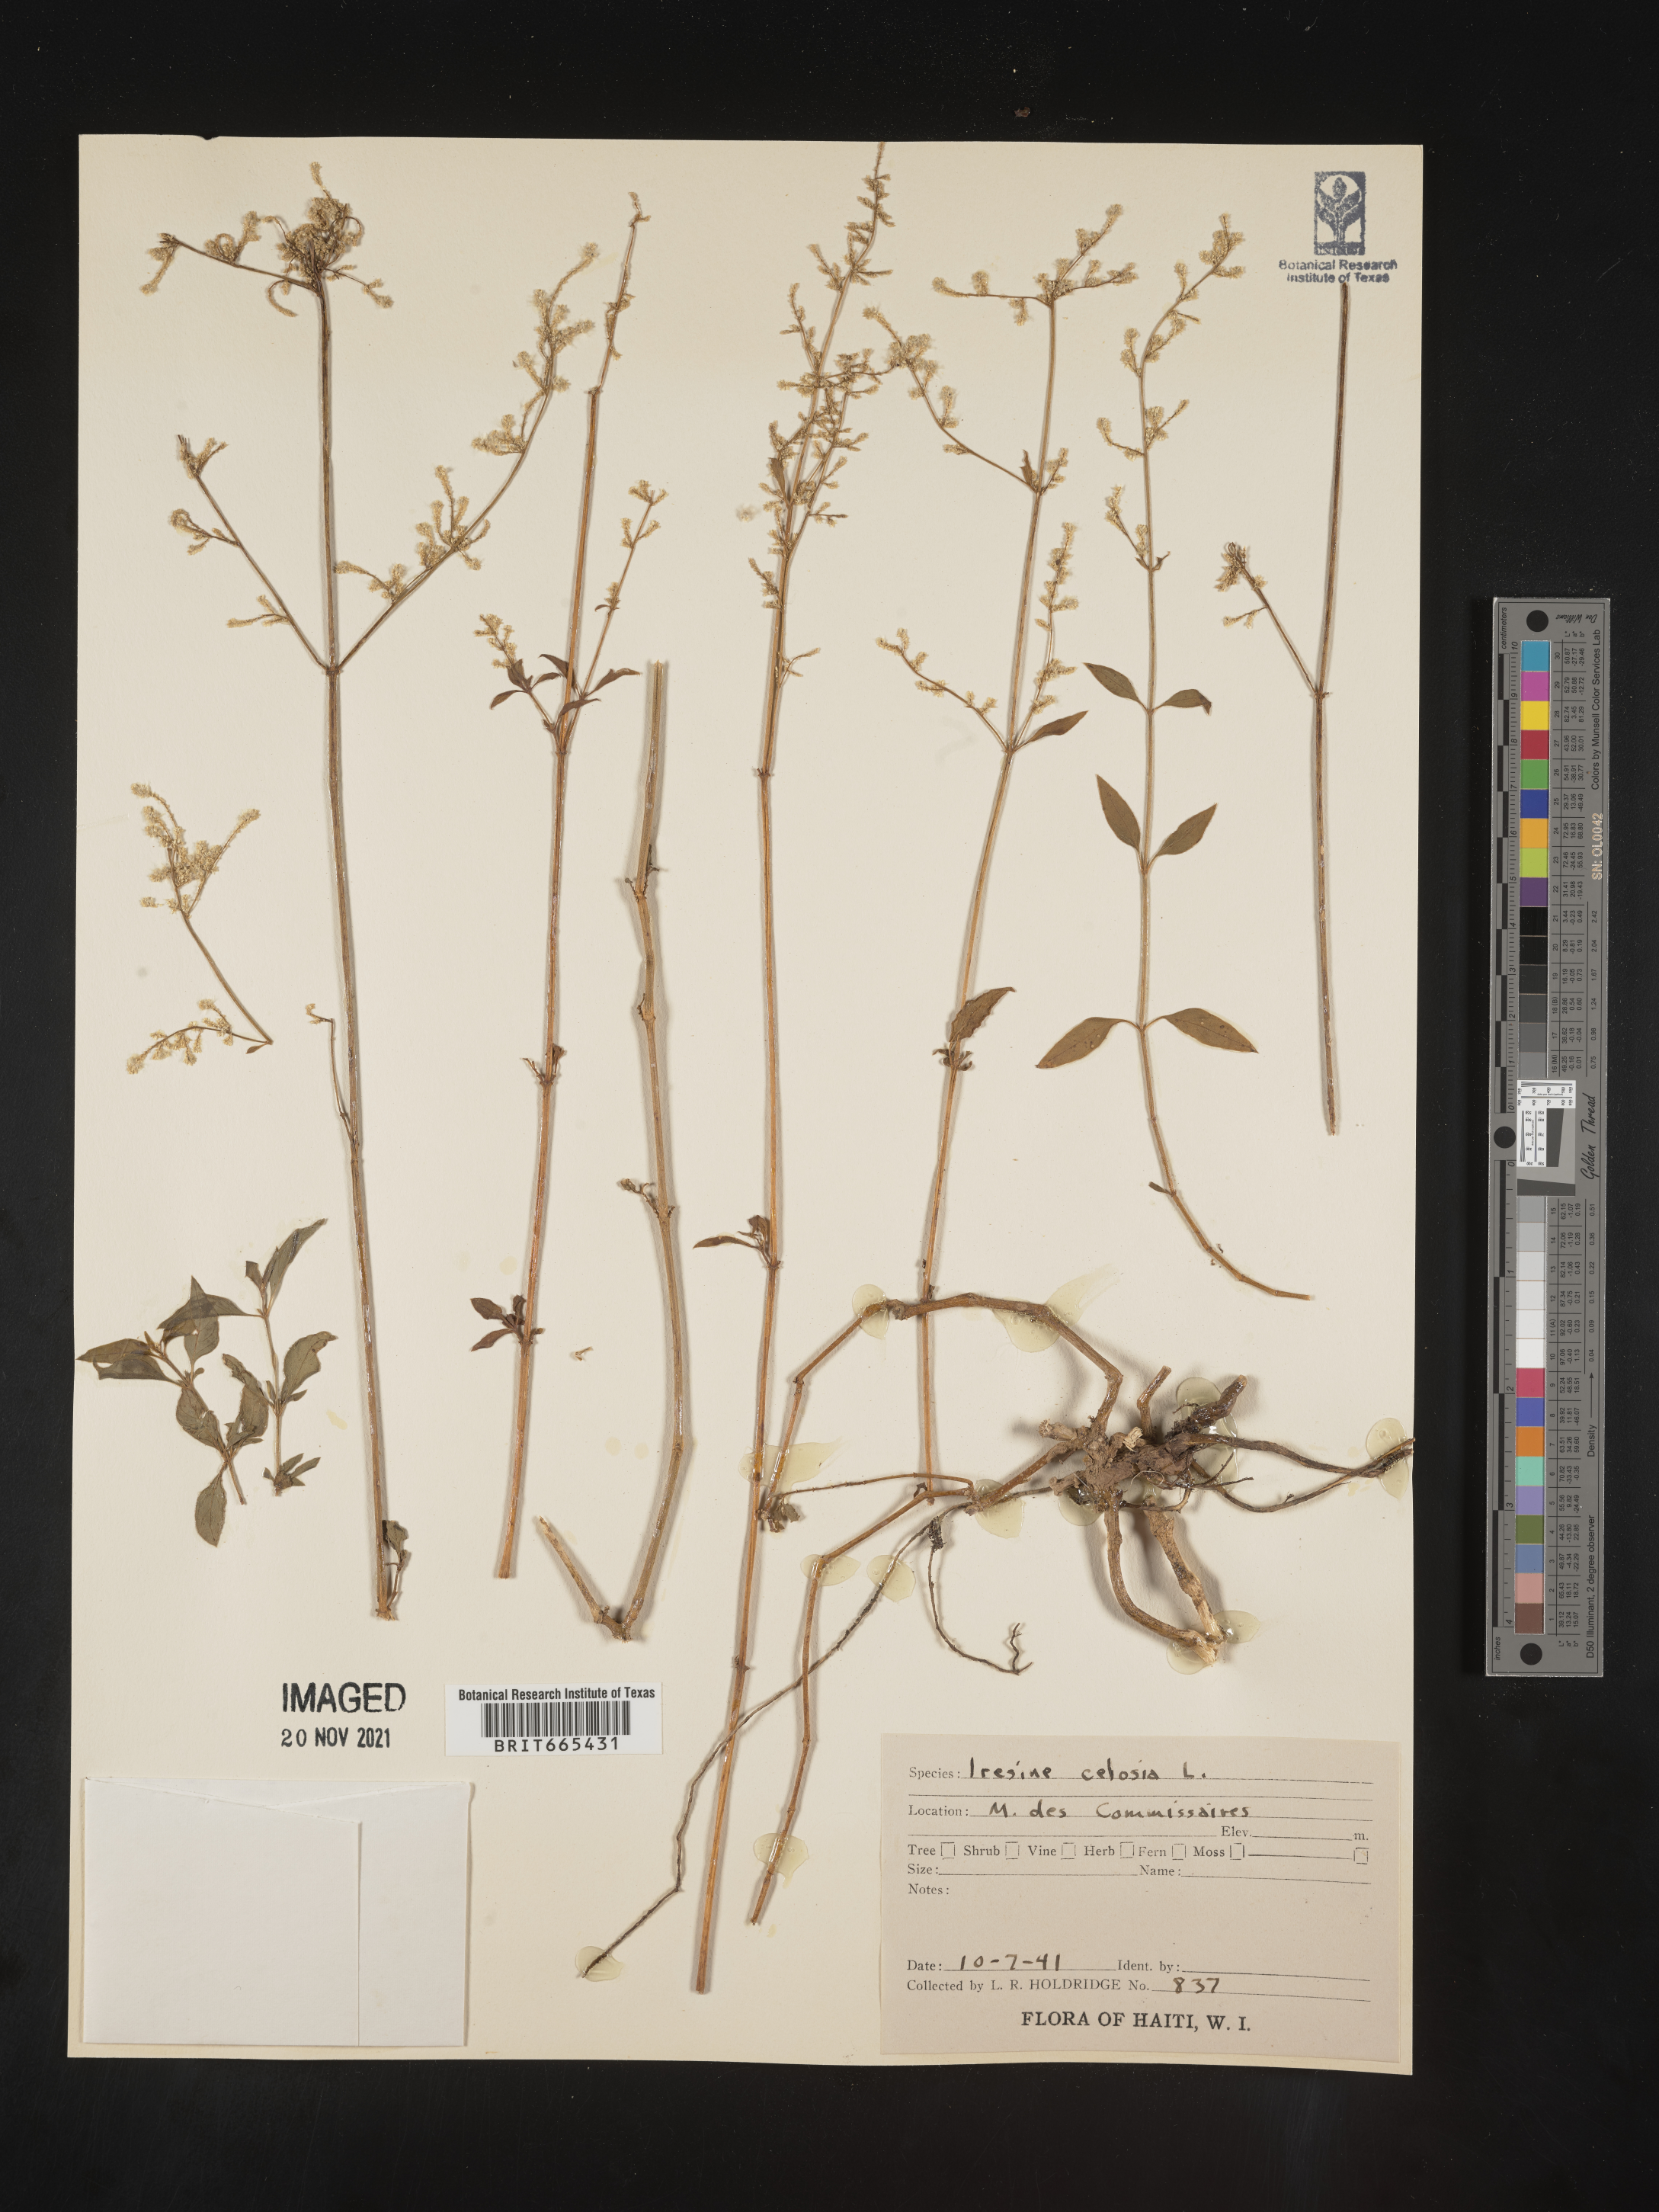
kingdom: Plantae
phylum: Tracheophyta
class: Magnoliopsida
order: Caryophyllales
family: Amaranthaceae
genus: Iresine
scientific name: Iresine
